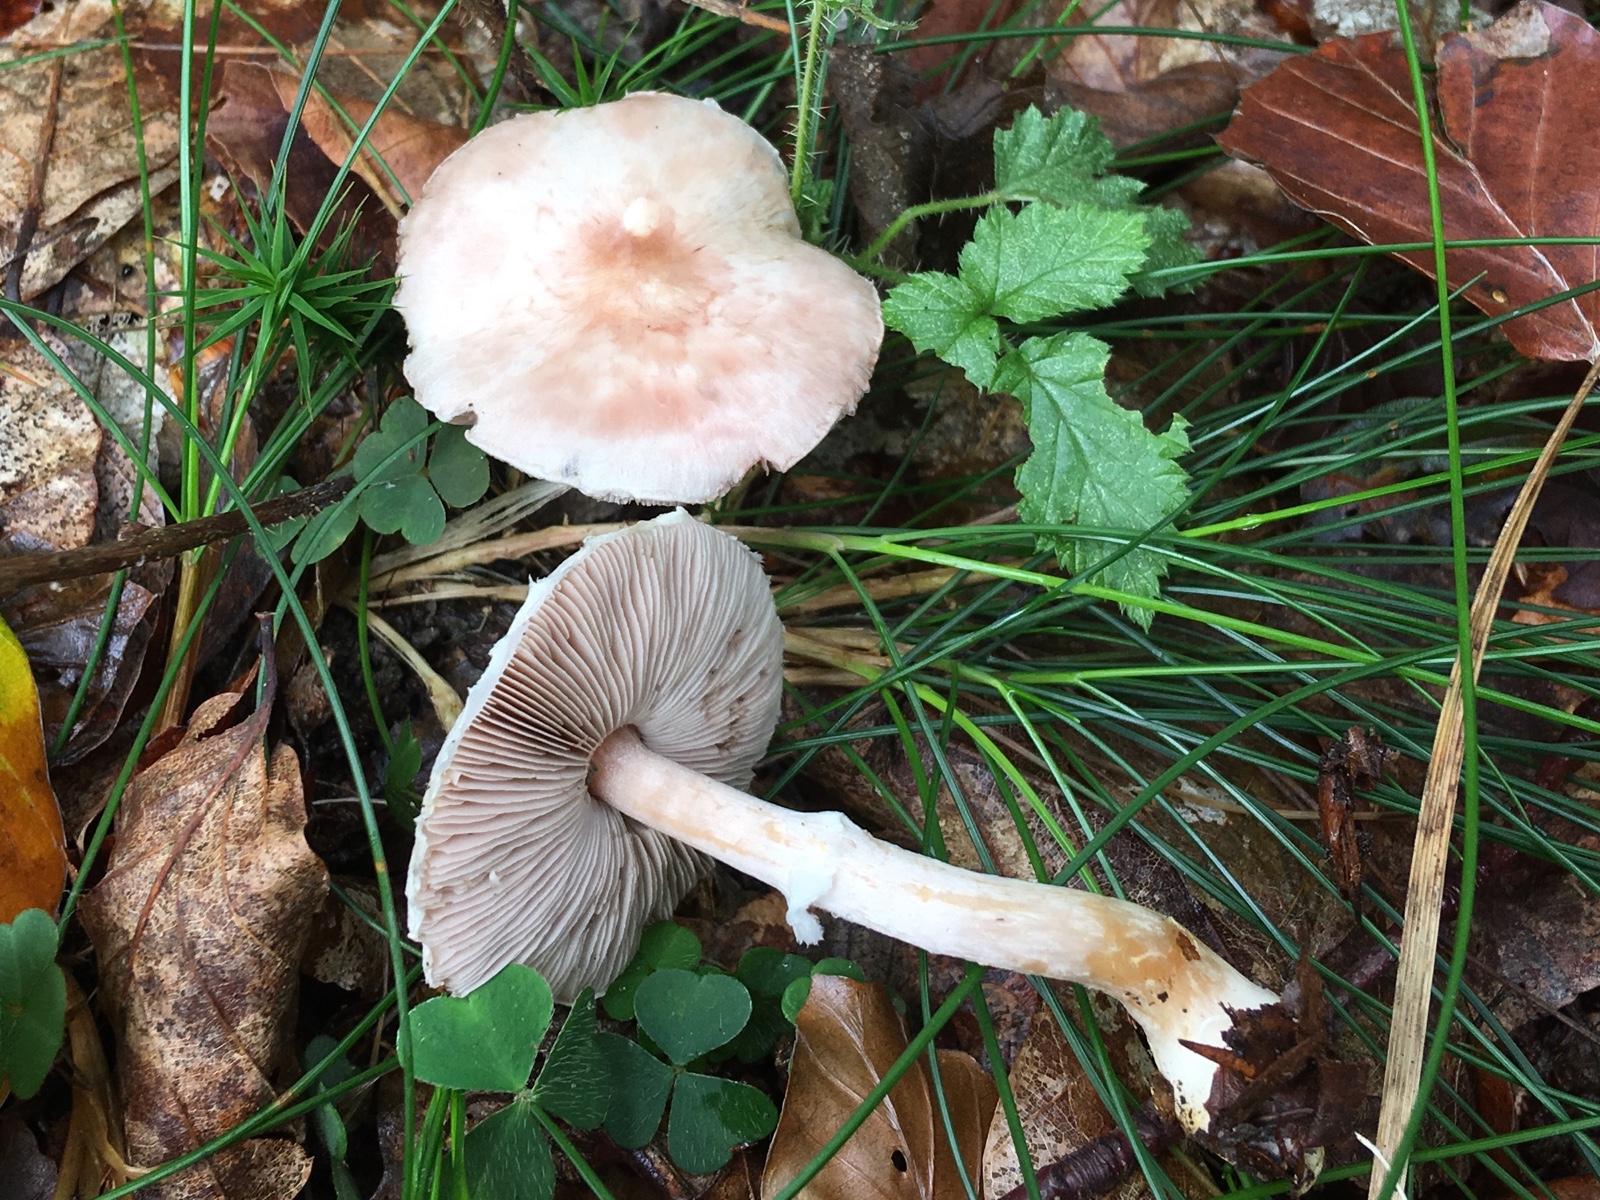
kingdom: Fungi
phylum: Basidiomycota
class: Agaricomycetes
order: Agaricales
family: Agaricaceae
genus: Agaricus
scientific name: Agaricus dulcidulus
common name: blegrød champignon
